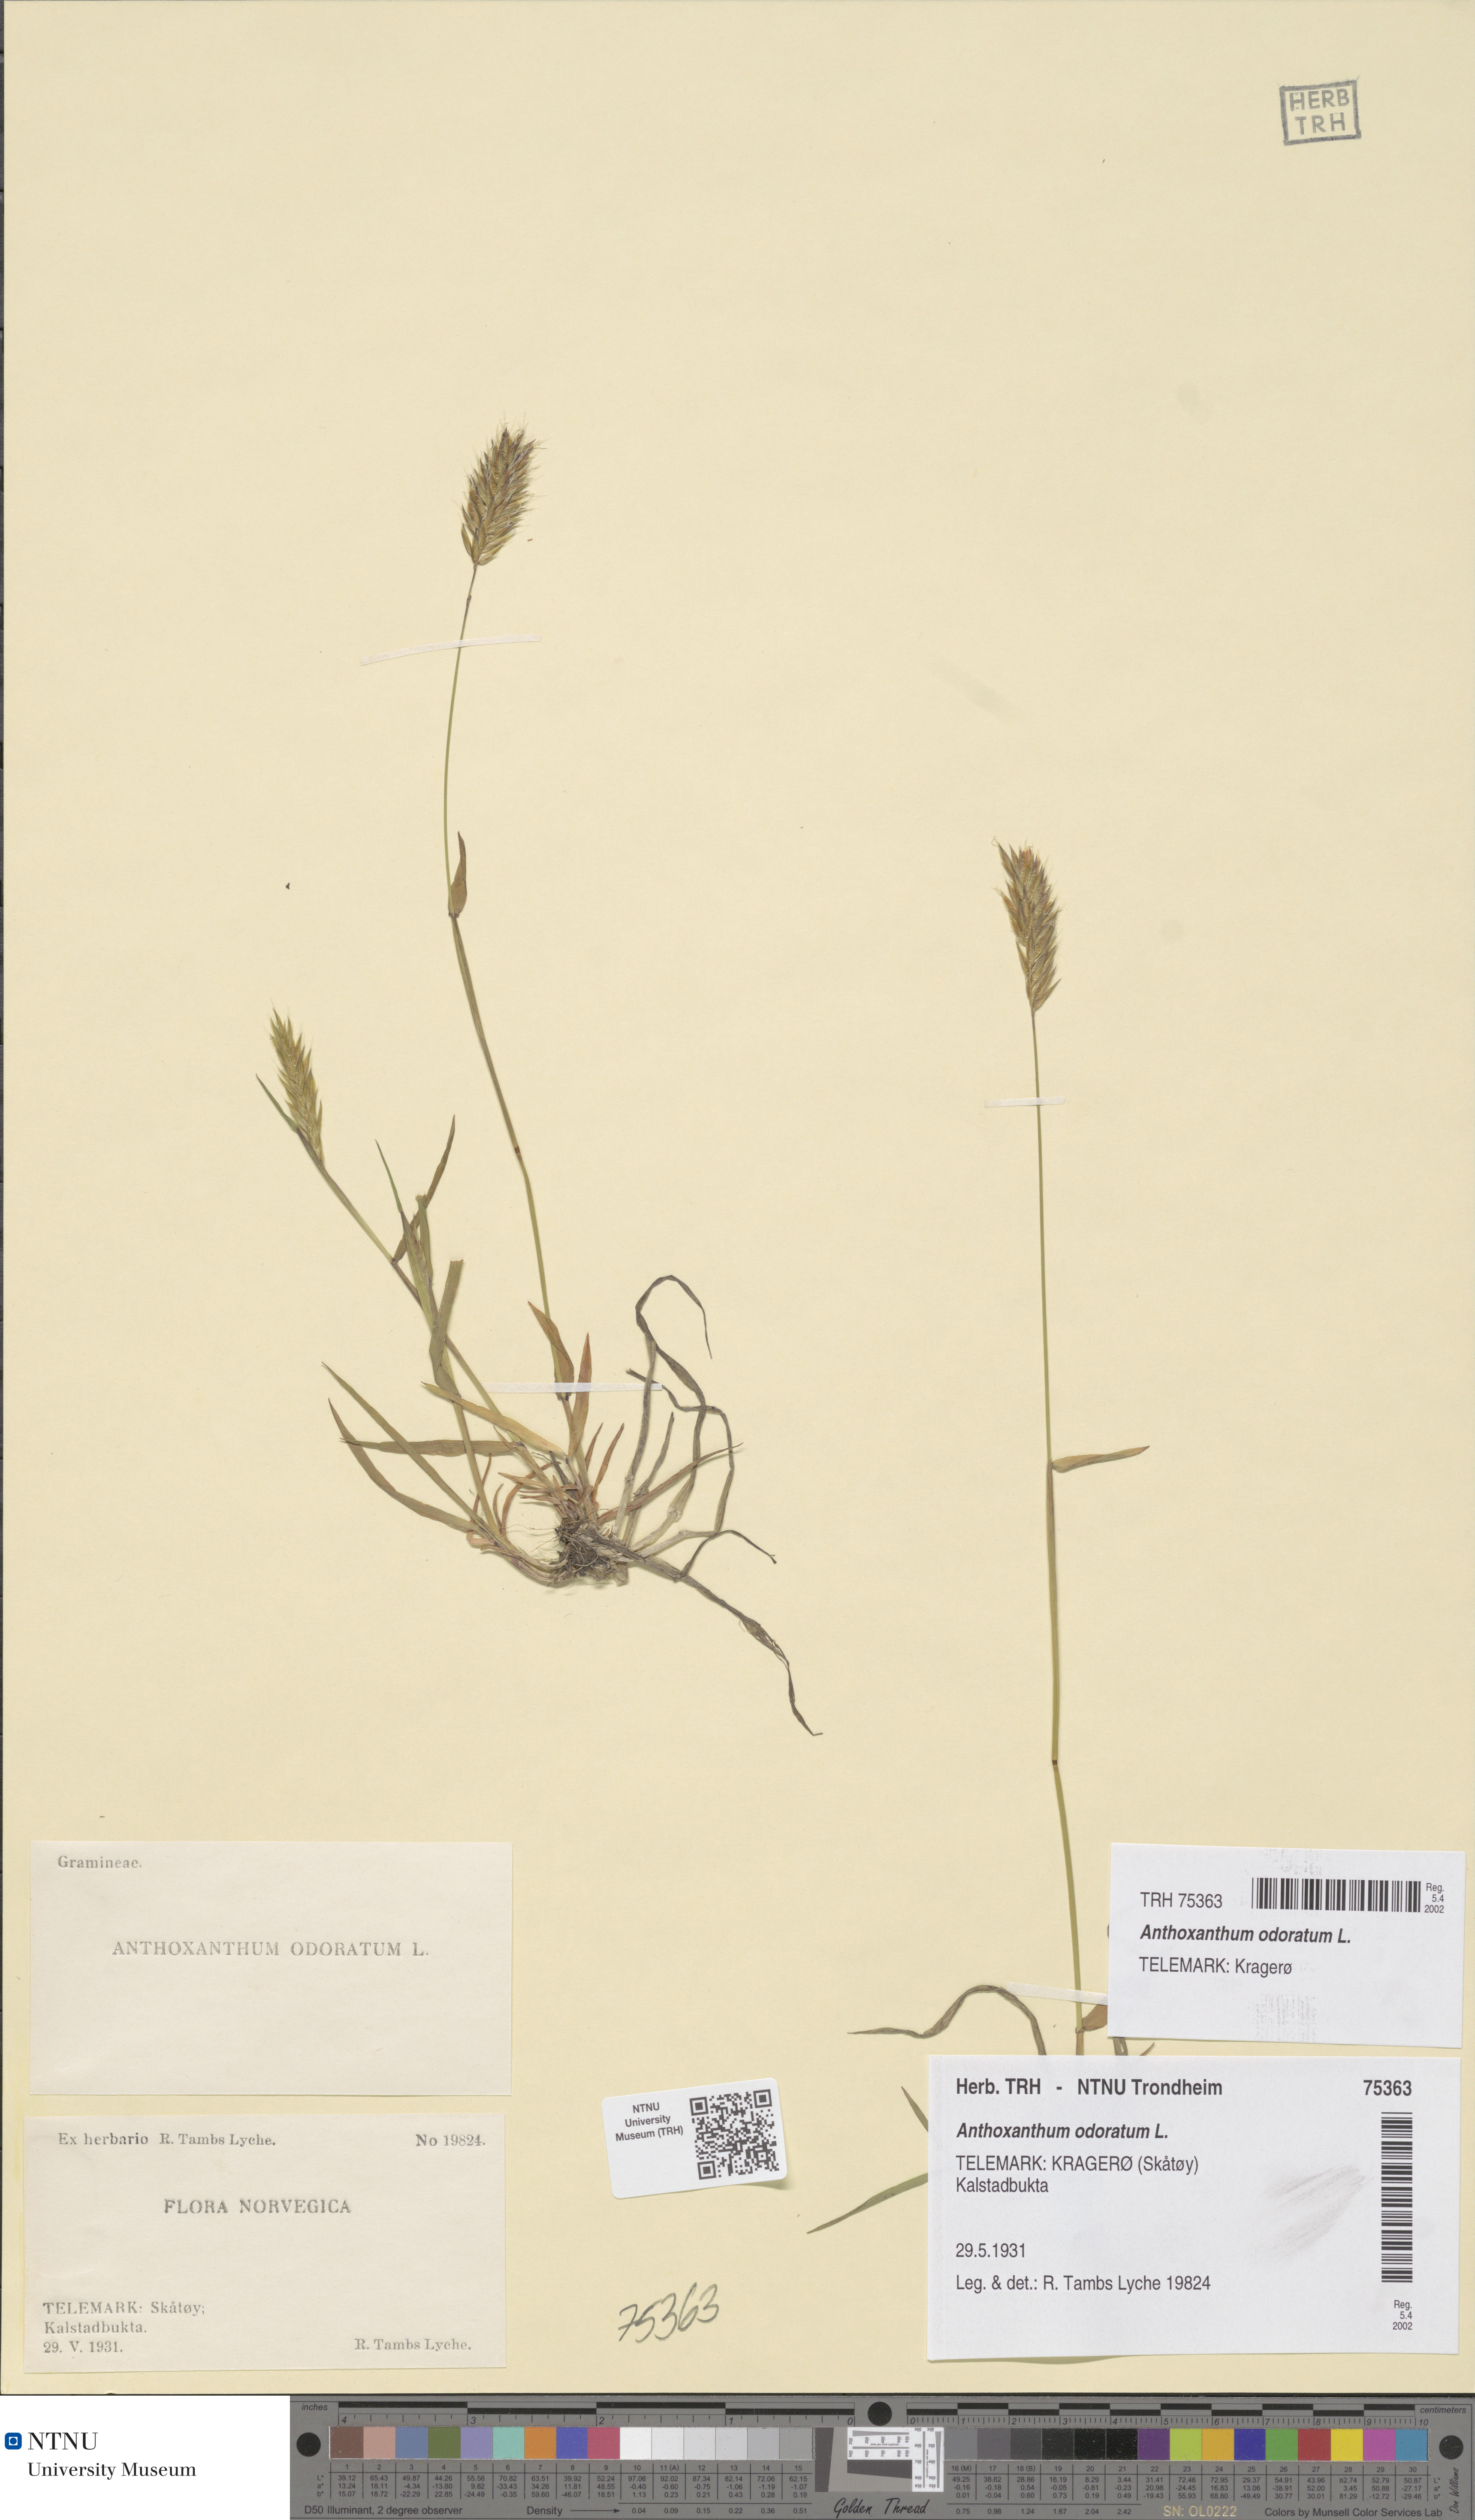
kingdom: Plantae
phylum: Tracheophyta
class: Liliopsida
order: Poales
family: Poaceae
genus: Anthoxanthum
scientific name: Anthoxanthum odoratum
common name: Sweet vernalgrass
